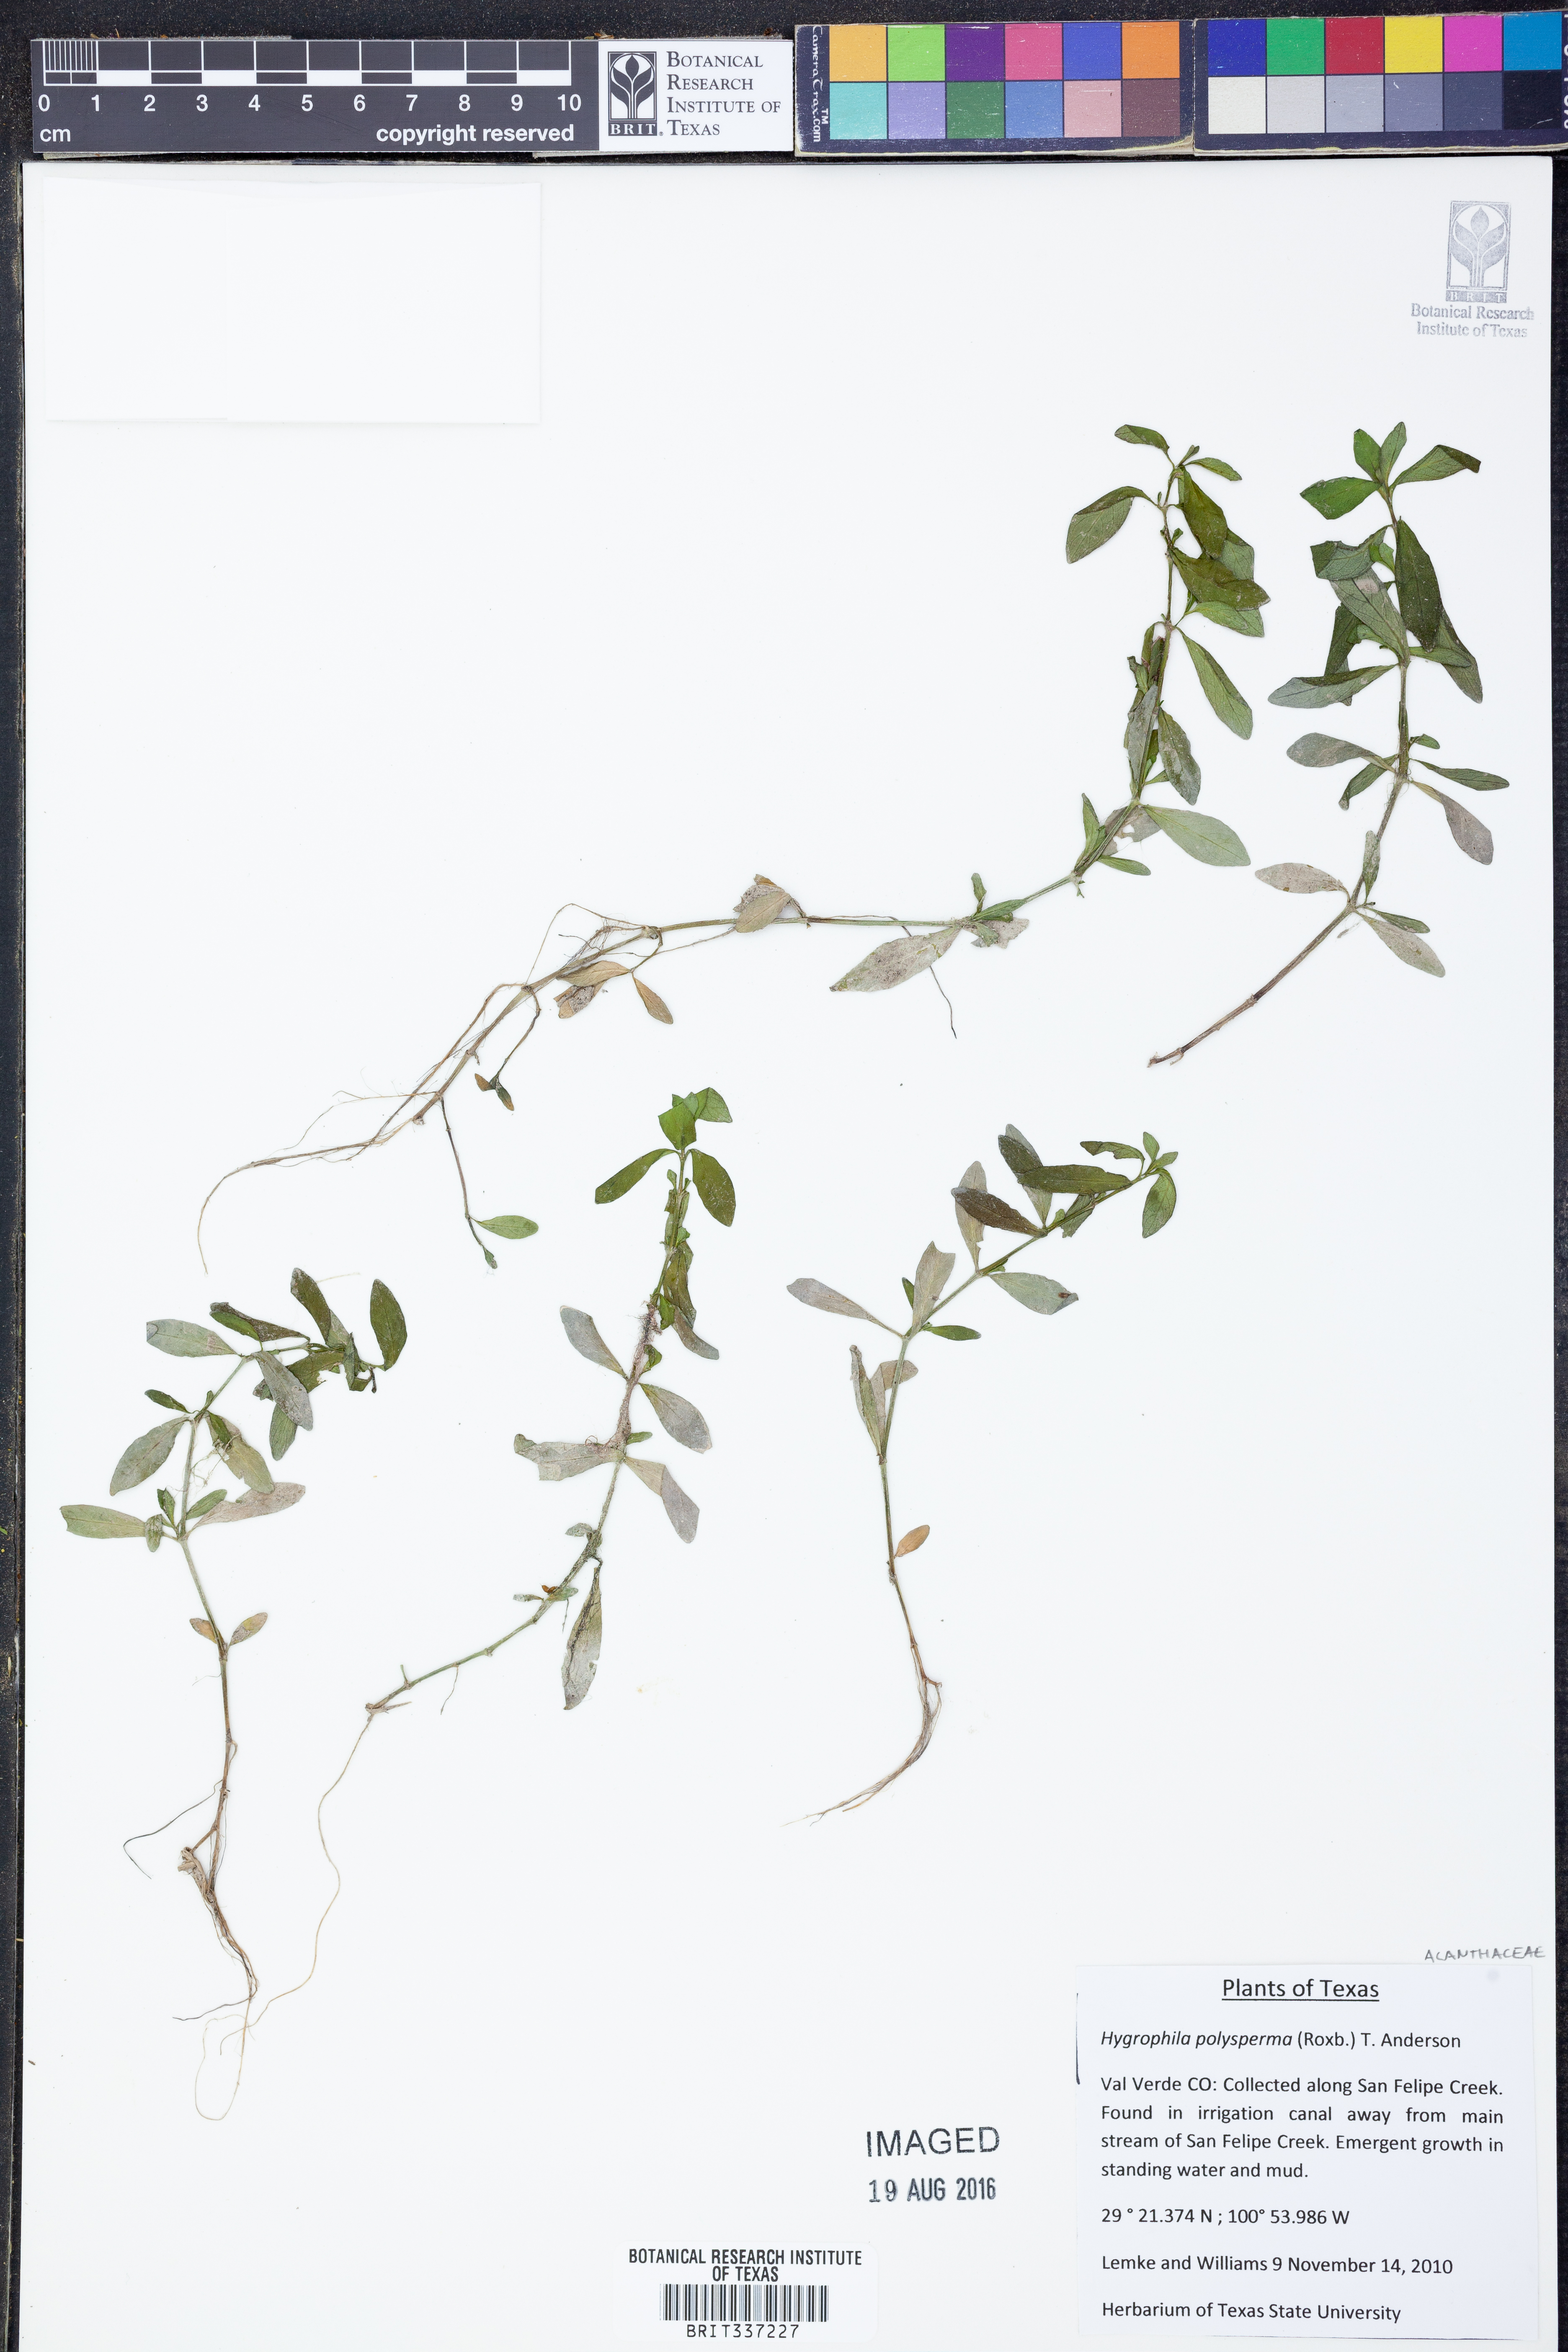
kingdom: Plantae
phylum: Tracheophyta
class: Magnoliopsida
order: Lamiales
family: Acanthaceae
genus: Hygrophila
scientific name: Hygrophila polysperma
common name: Indian swampweed
